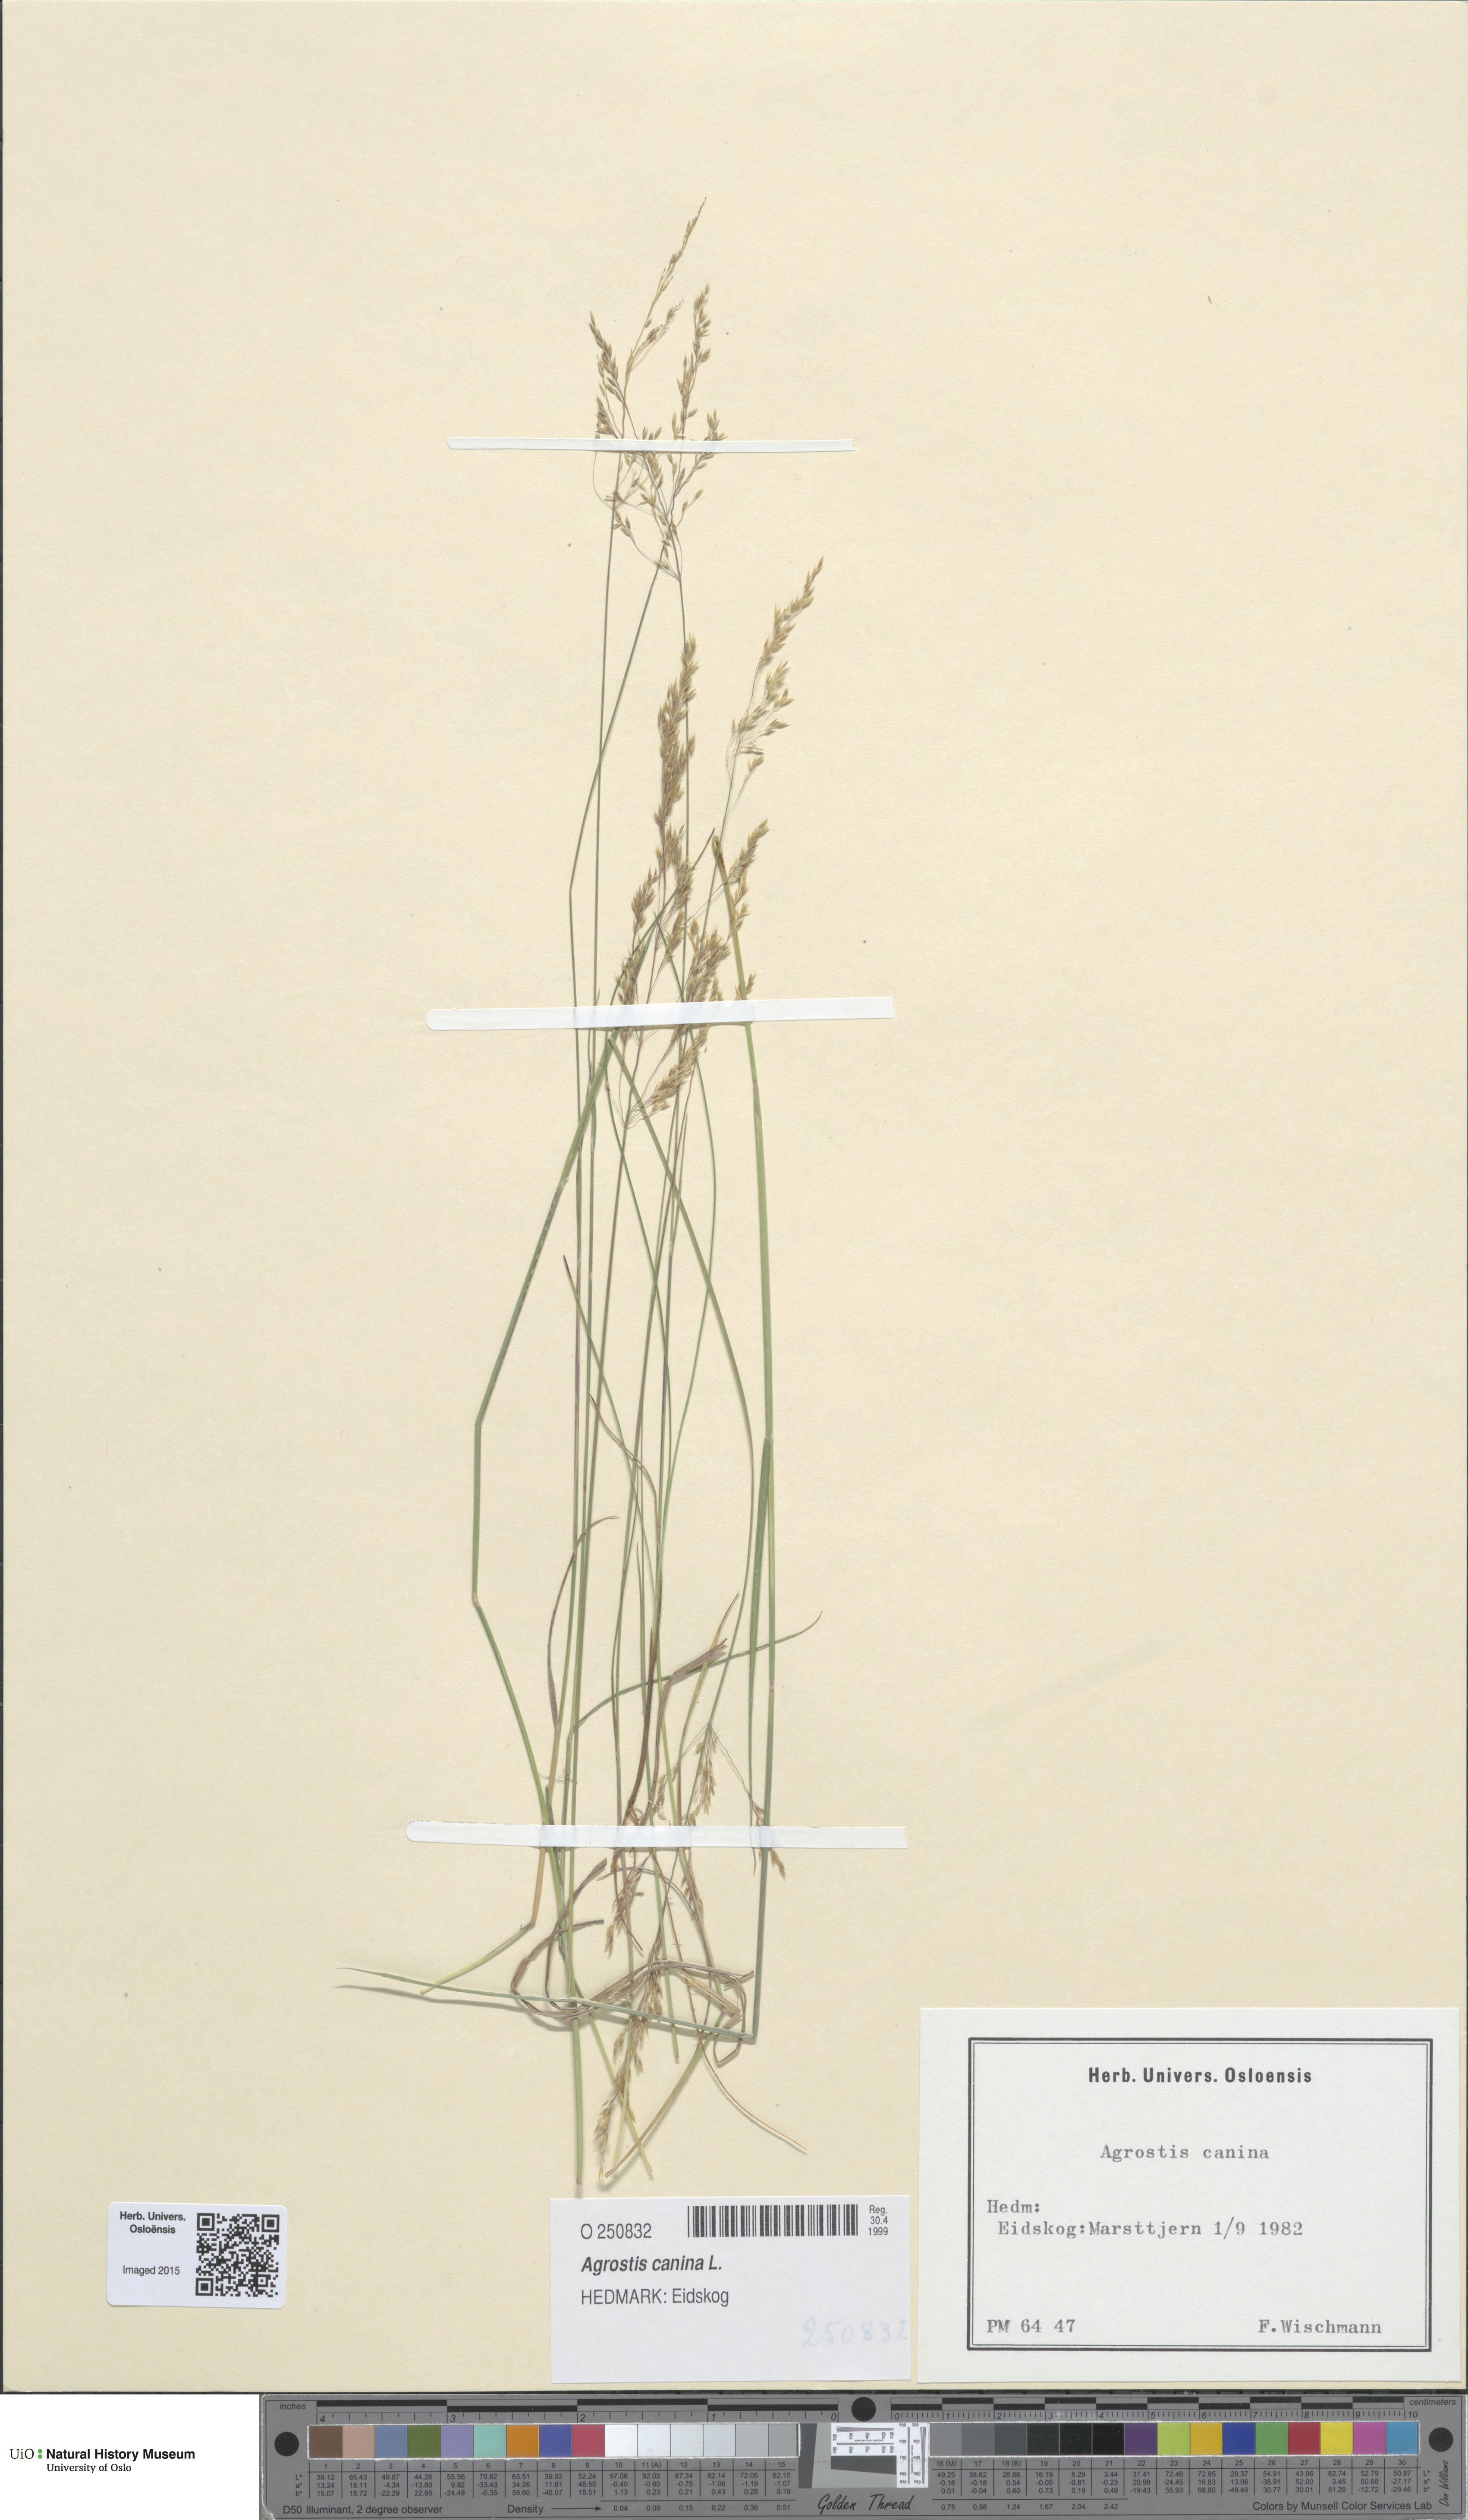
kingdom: Plantae
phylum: Tracheophyta
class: Liliopsida
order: Poales
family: Poaceae
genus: Agrostis
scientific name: Agrostis canina
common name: Velvet bent
